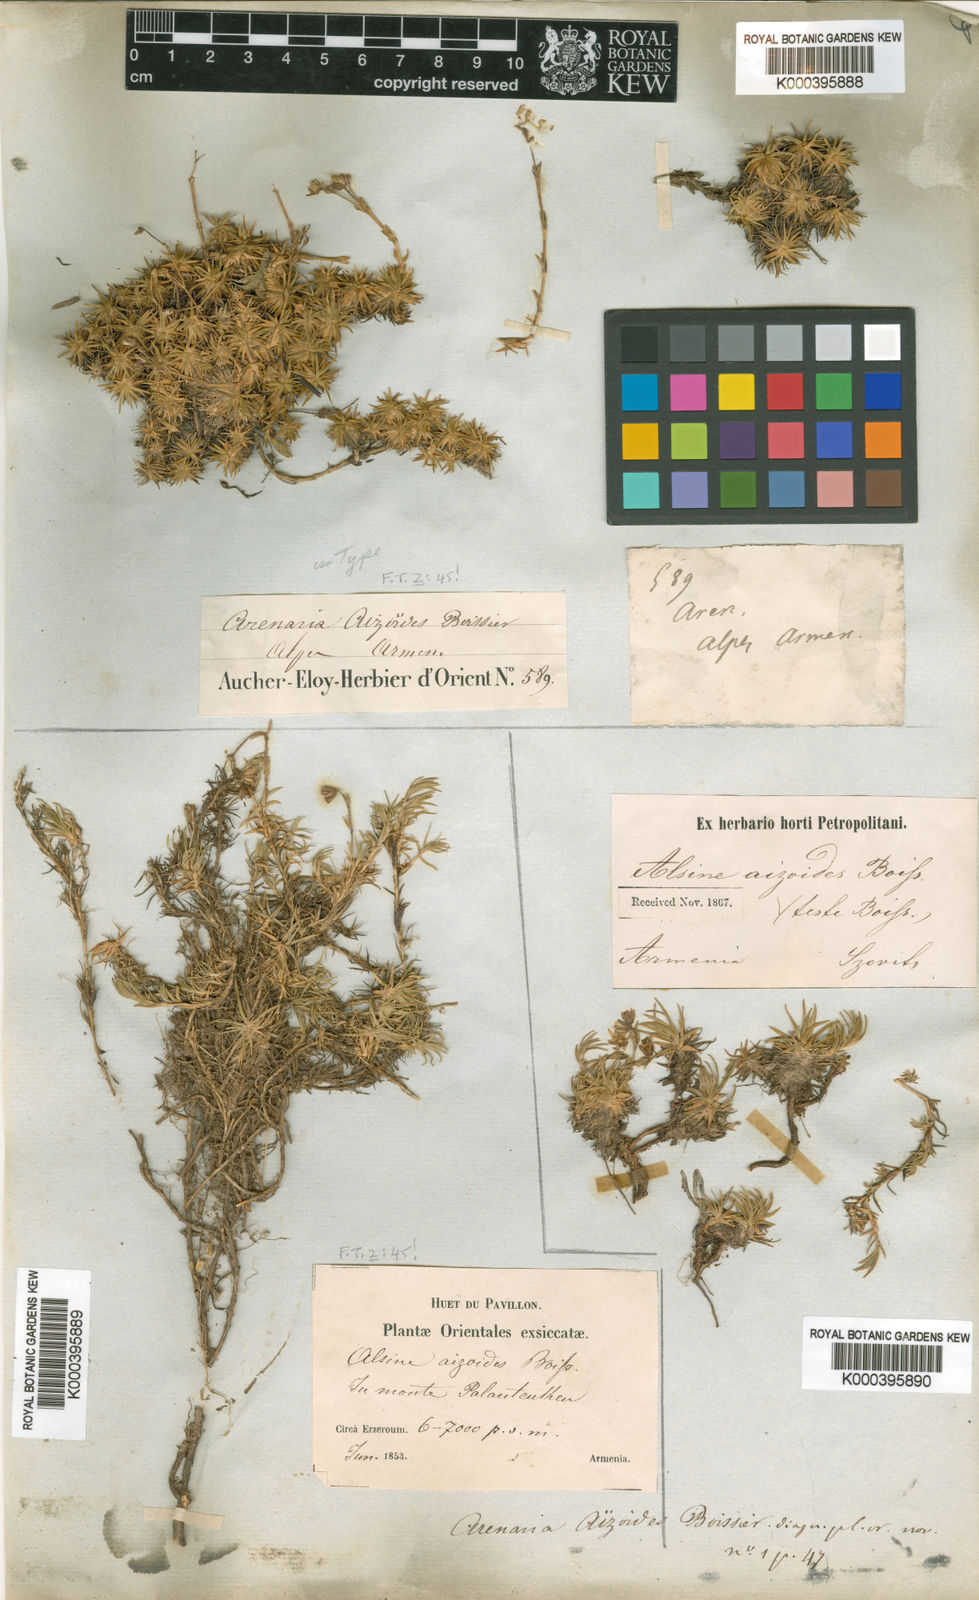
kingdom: Plantae
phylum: Tracheophyta
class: Magnoliopsida
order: Caryophyllales
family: Caryophyllaceae
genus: Pseudocherleria
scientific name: Pseudocherleria aizoides
